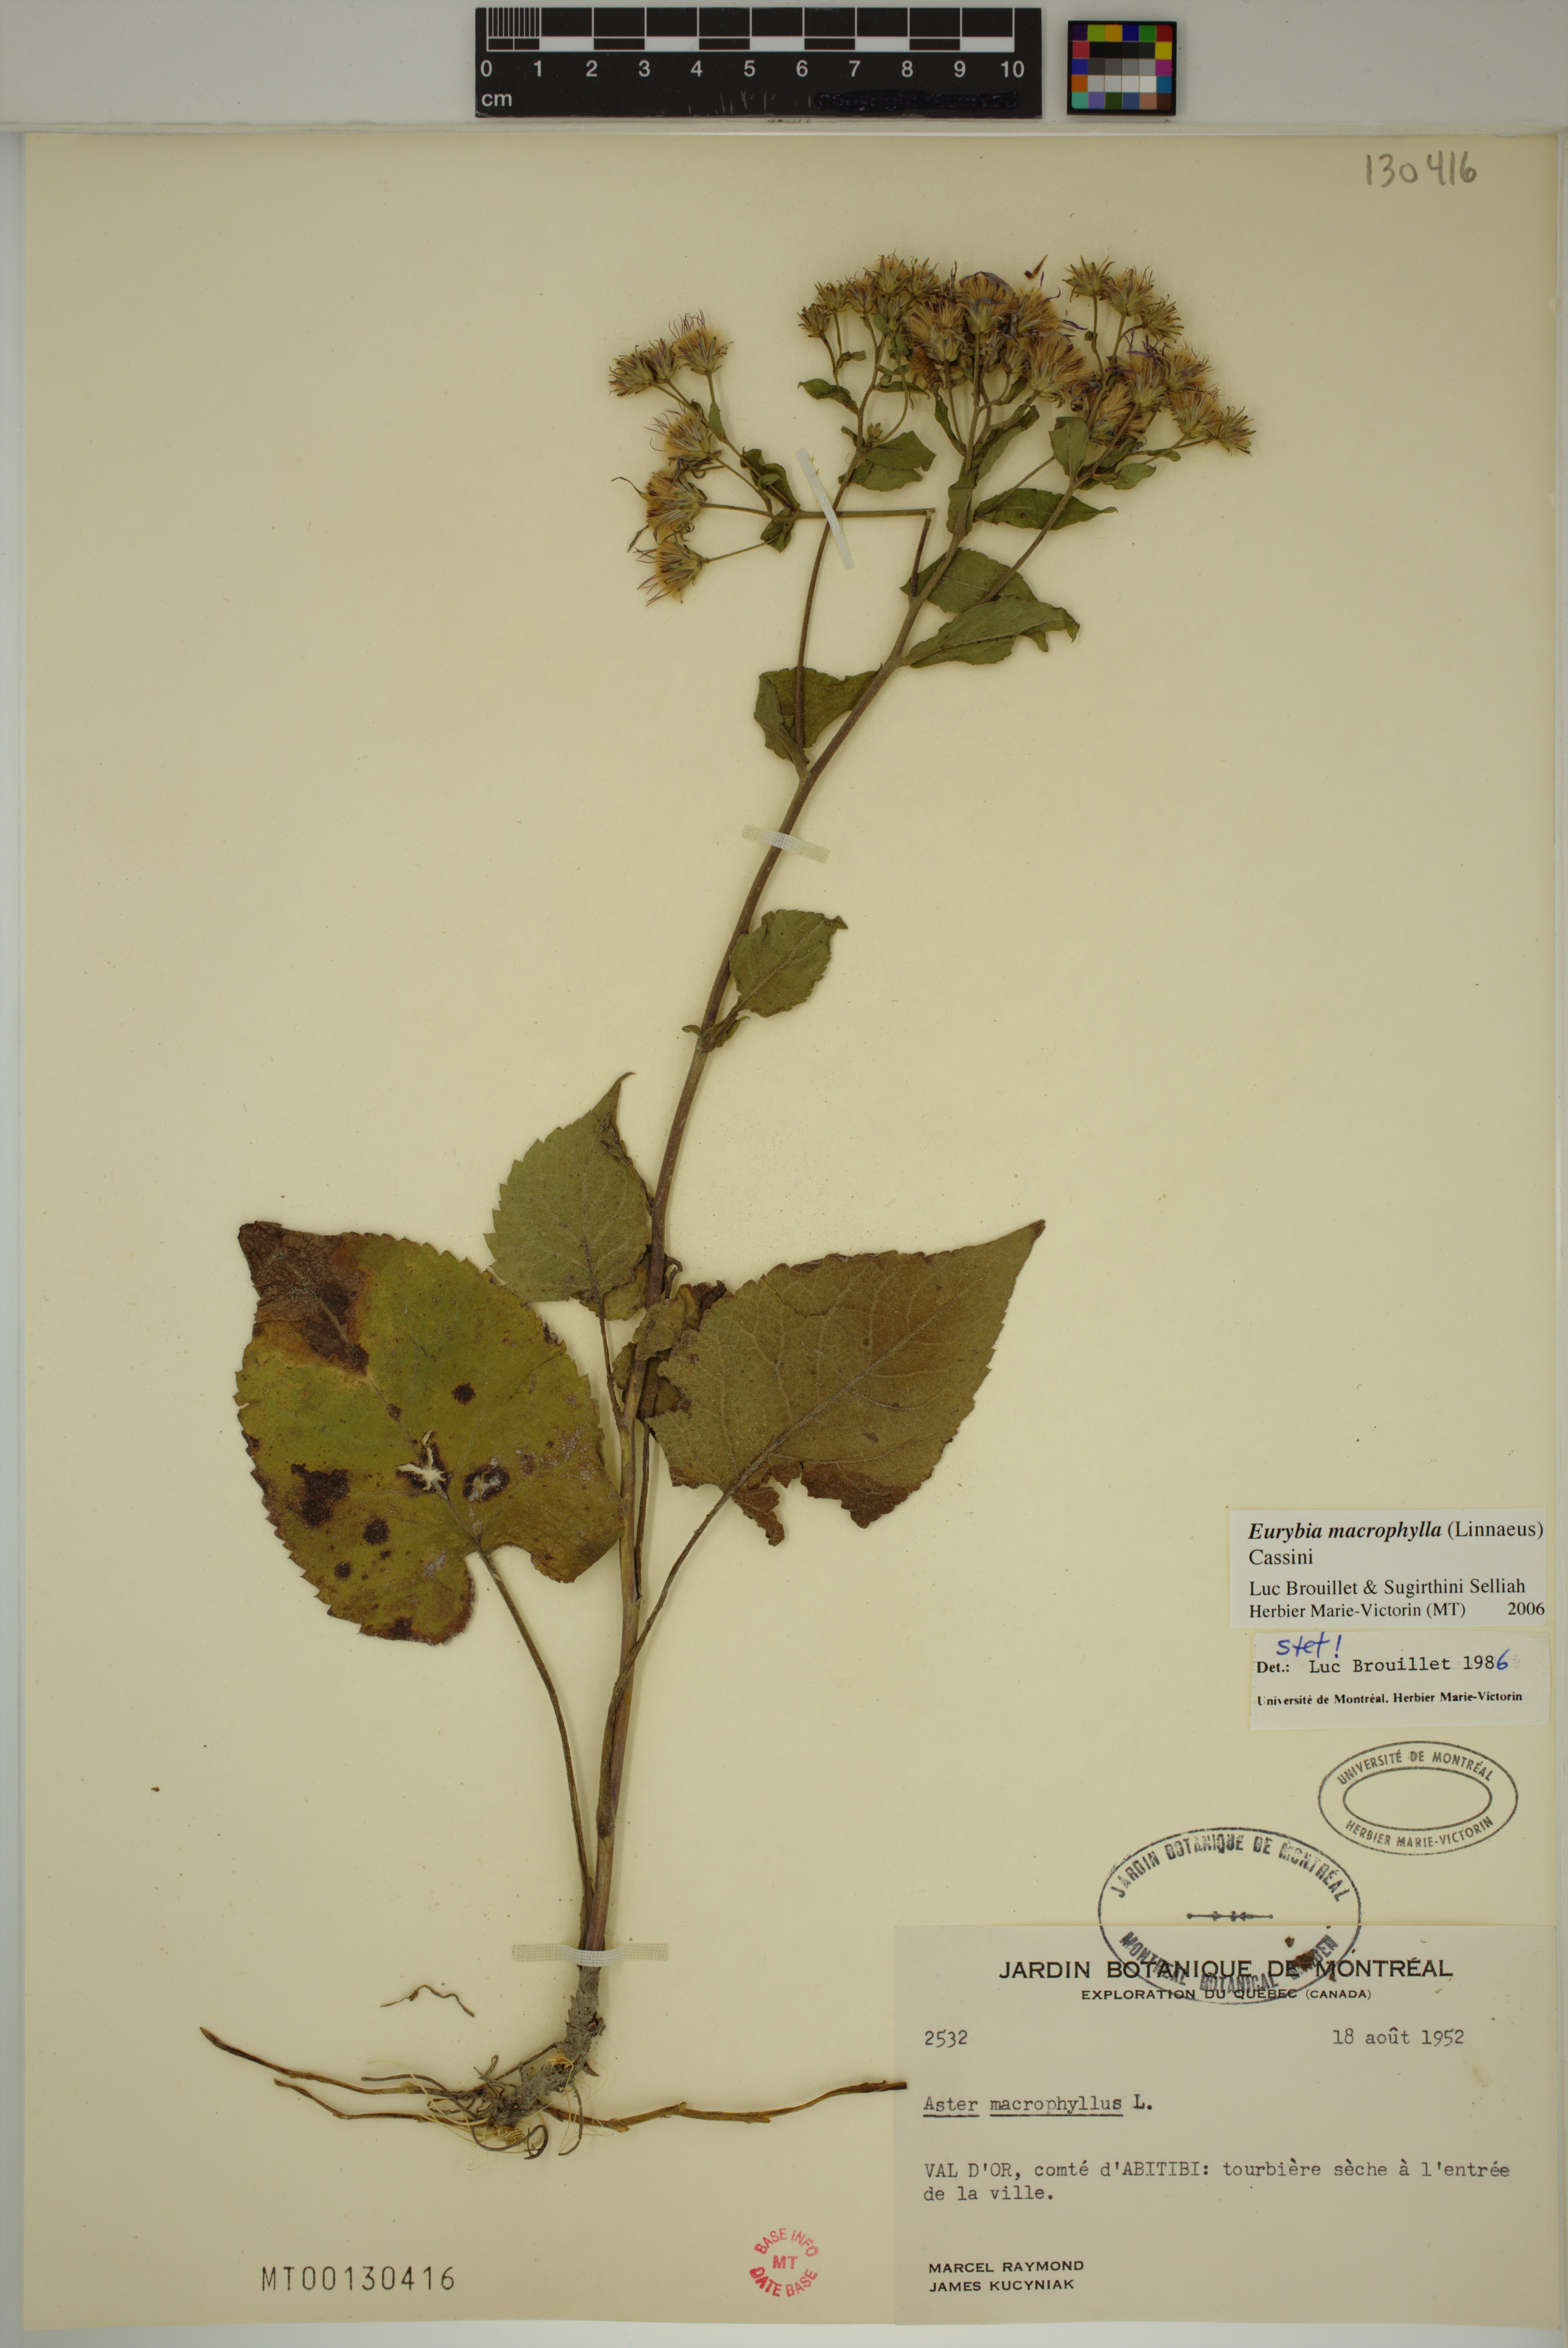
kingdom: Plantae
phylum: Tracheophyta
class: Magnoliopsida
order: Asterales
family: Asteraceae
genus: Eurybia
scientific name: Eurybia macrophylla
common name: Big-leaved aster
